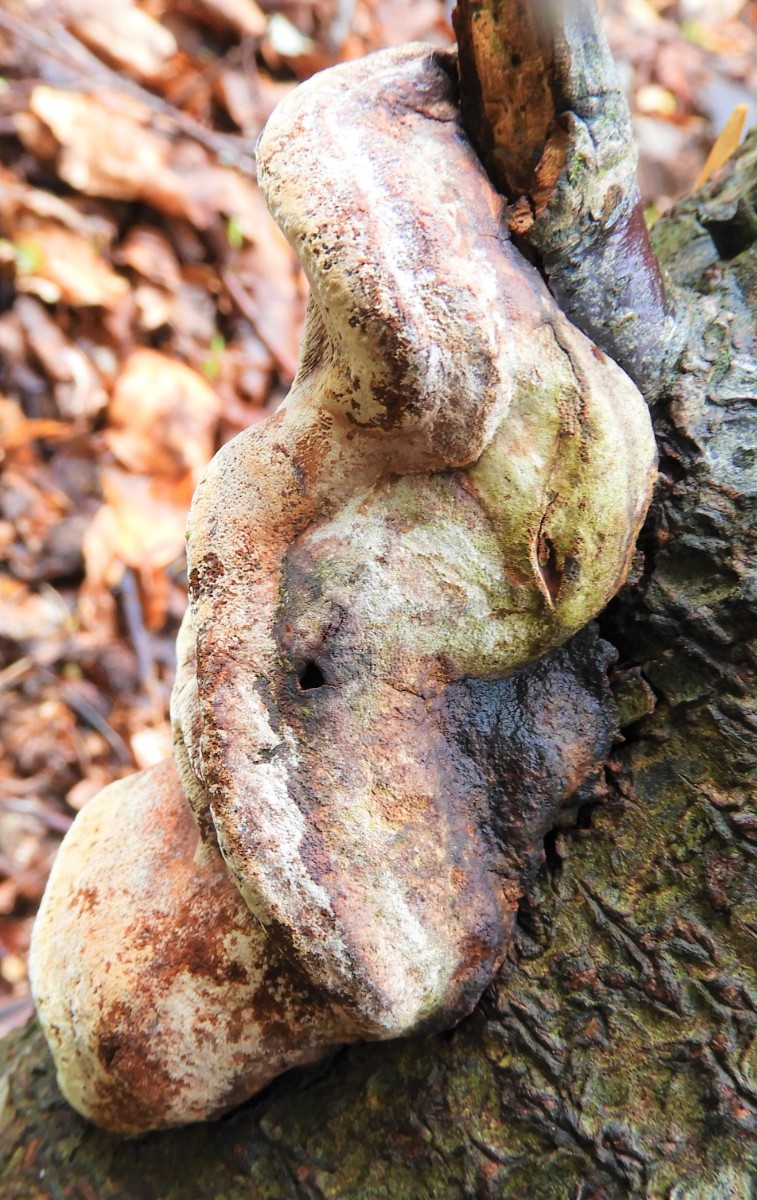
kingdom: Fungi
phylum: Basidiomycota
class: Agaricomycetes
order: Hymenochaetales
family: Hymenochaetaceae
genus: Phellinus
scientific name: Phellinus pomaceus
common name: blomme-ildporesvamp
